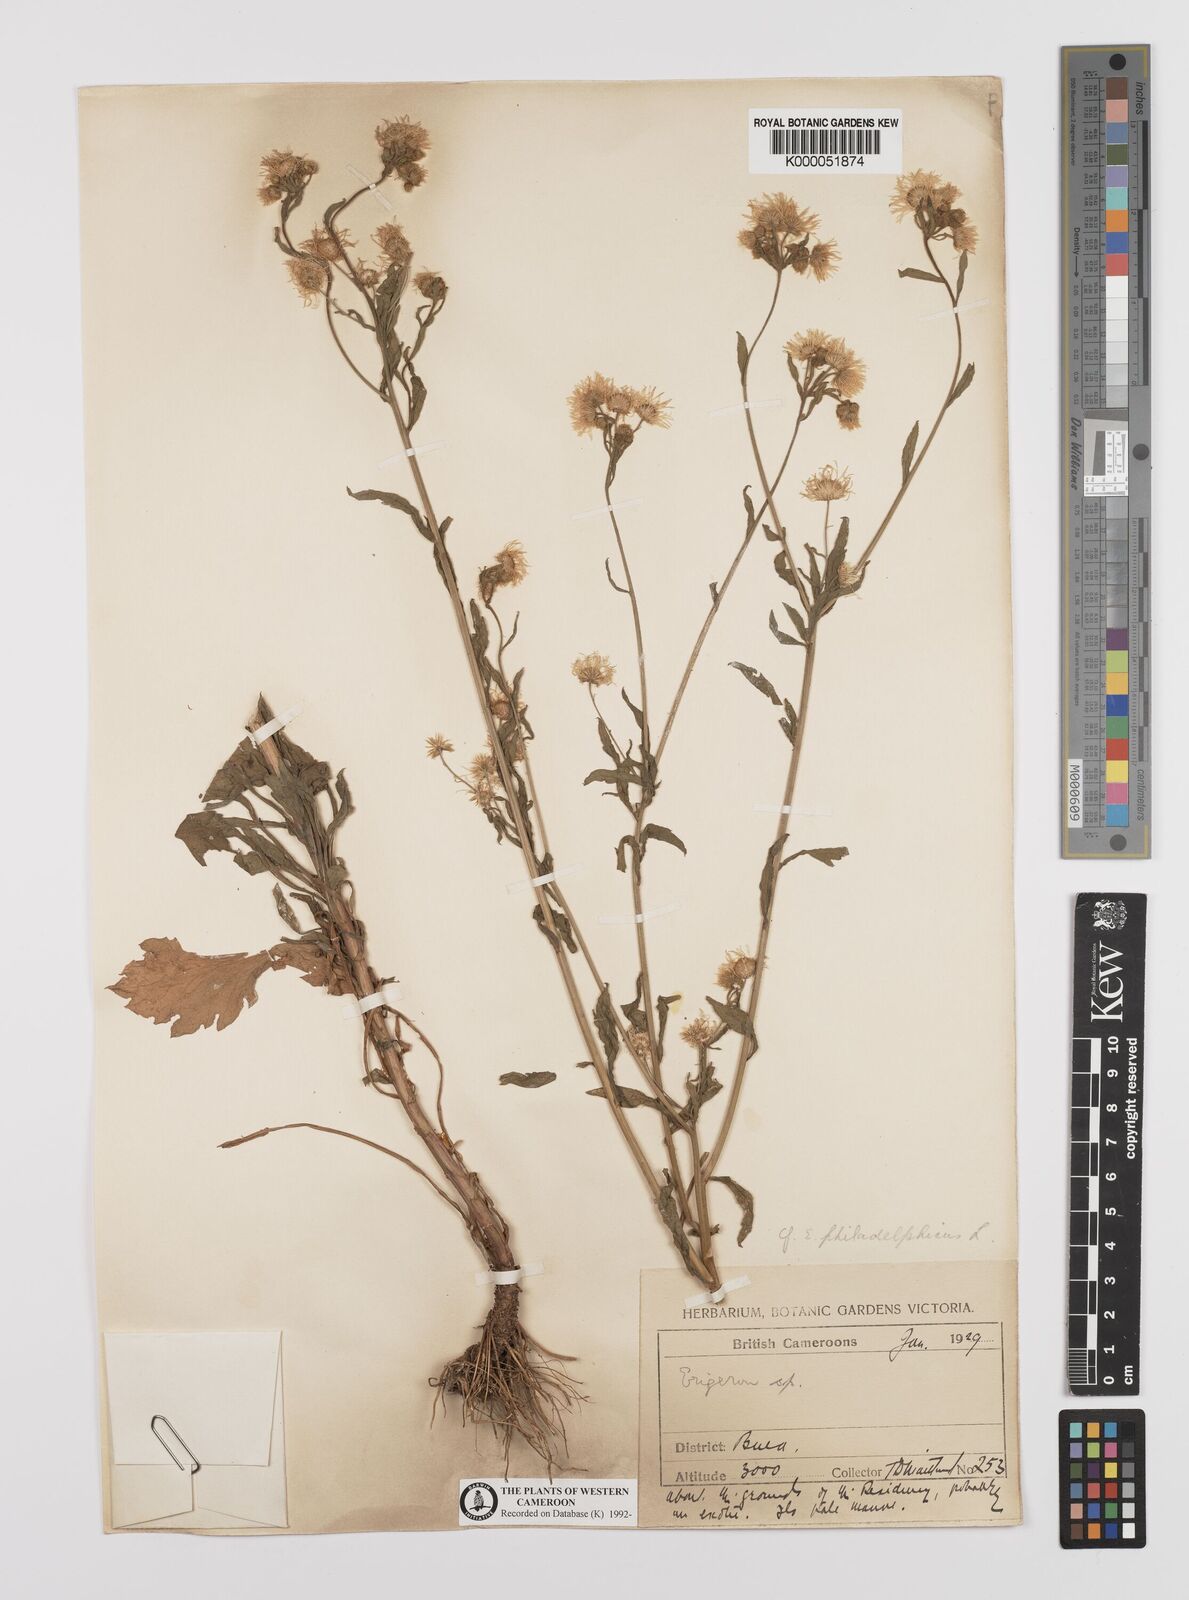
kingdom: Plantae
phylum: Tracheophyta
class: Magnoliopsida
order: Asterales
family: Asteraceae
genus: Erigeron
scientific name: Erigeron philadelphicus
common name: Robin's-plantain
